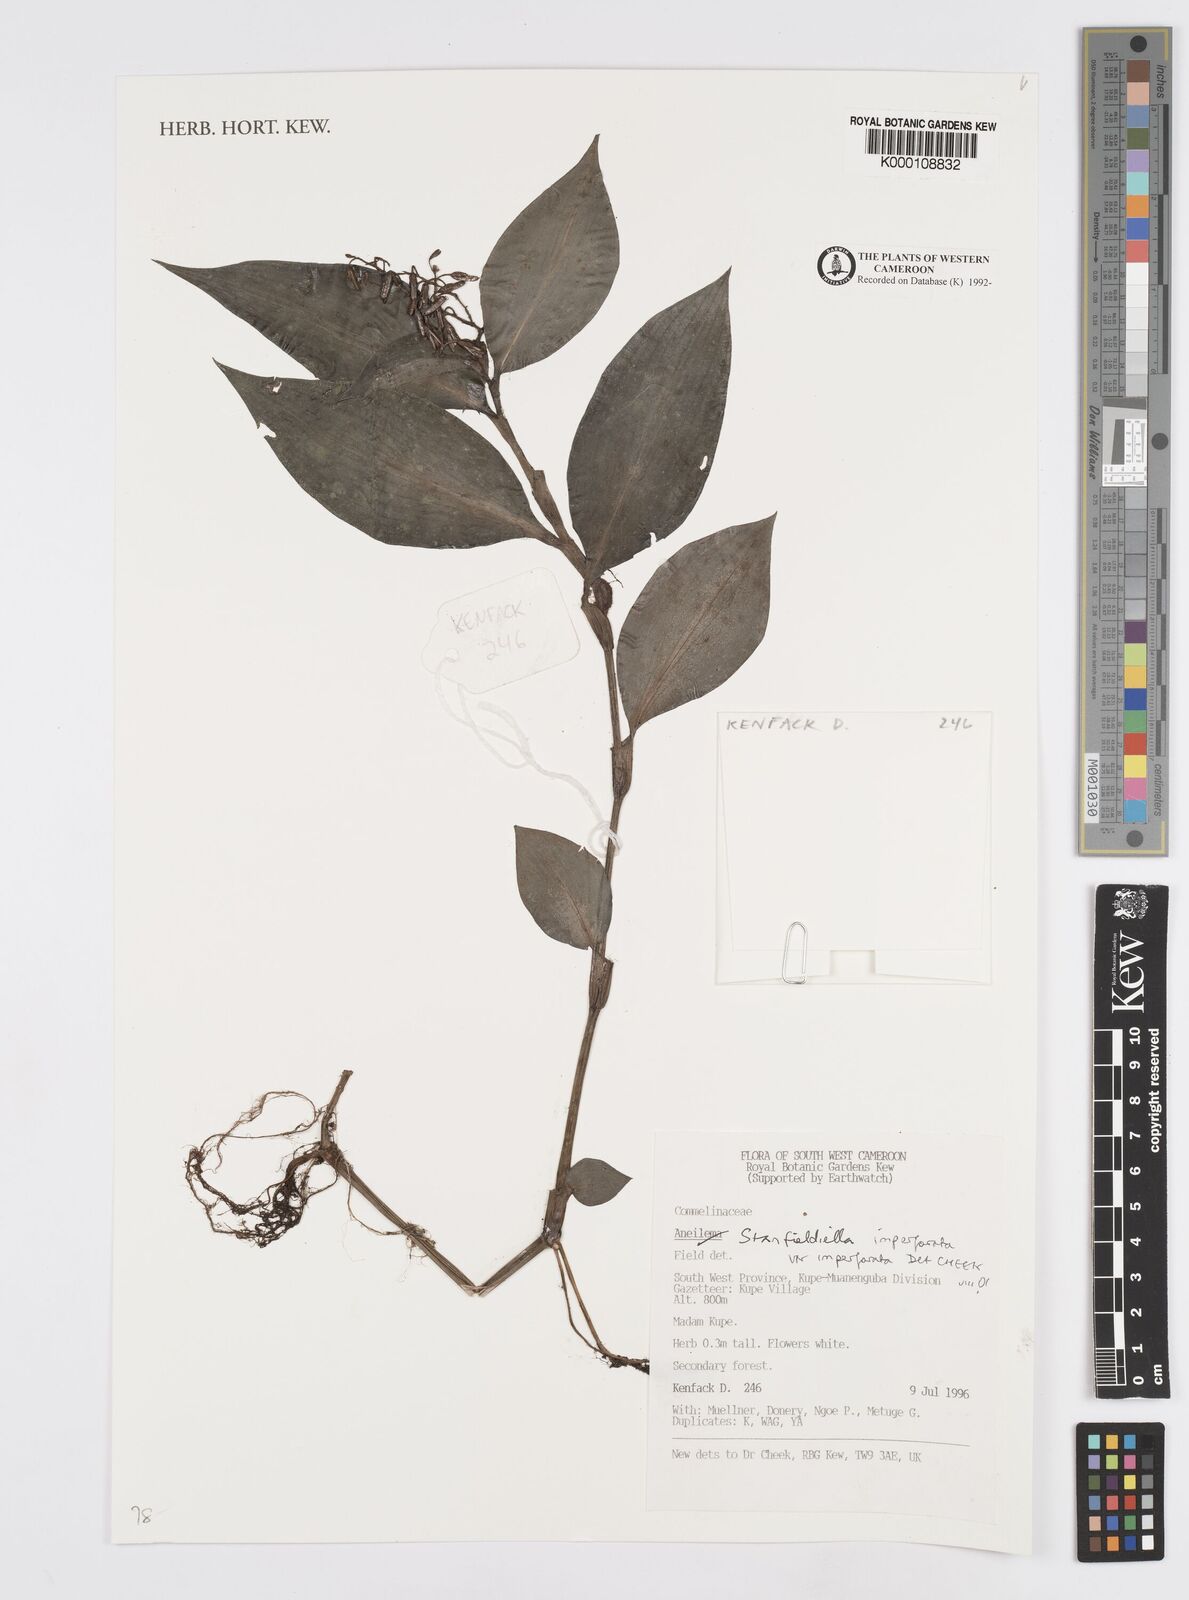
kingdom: Plantae
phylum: Tracheophyta
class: Liliopsida
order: Commelinales
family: Commelinaceae
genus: Stanfieldiella
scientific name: Stanfieldiella imperforata
